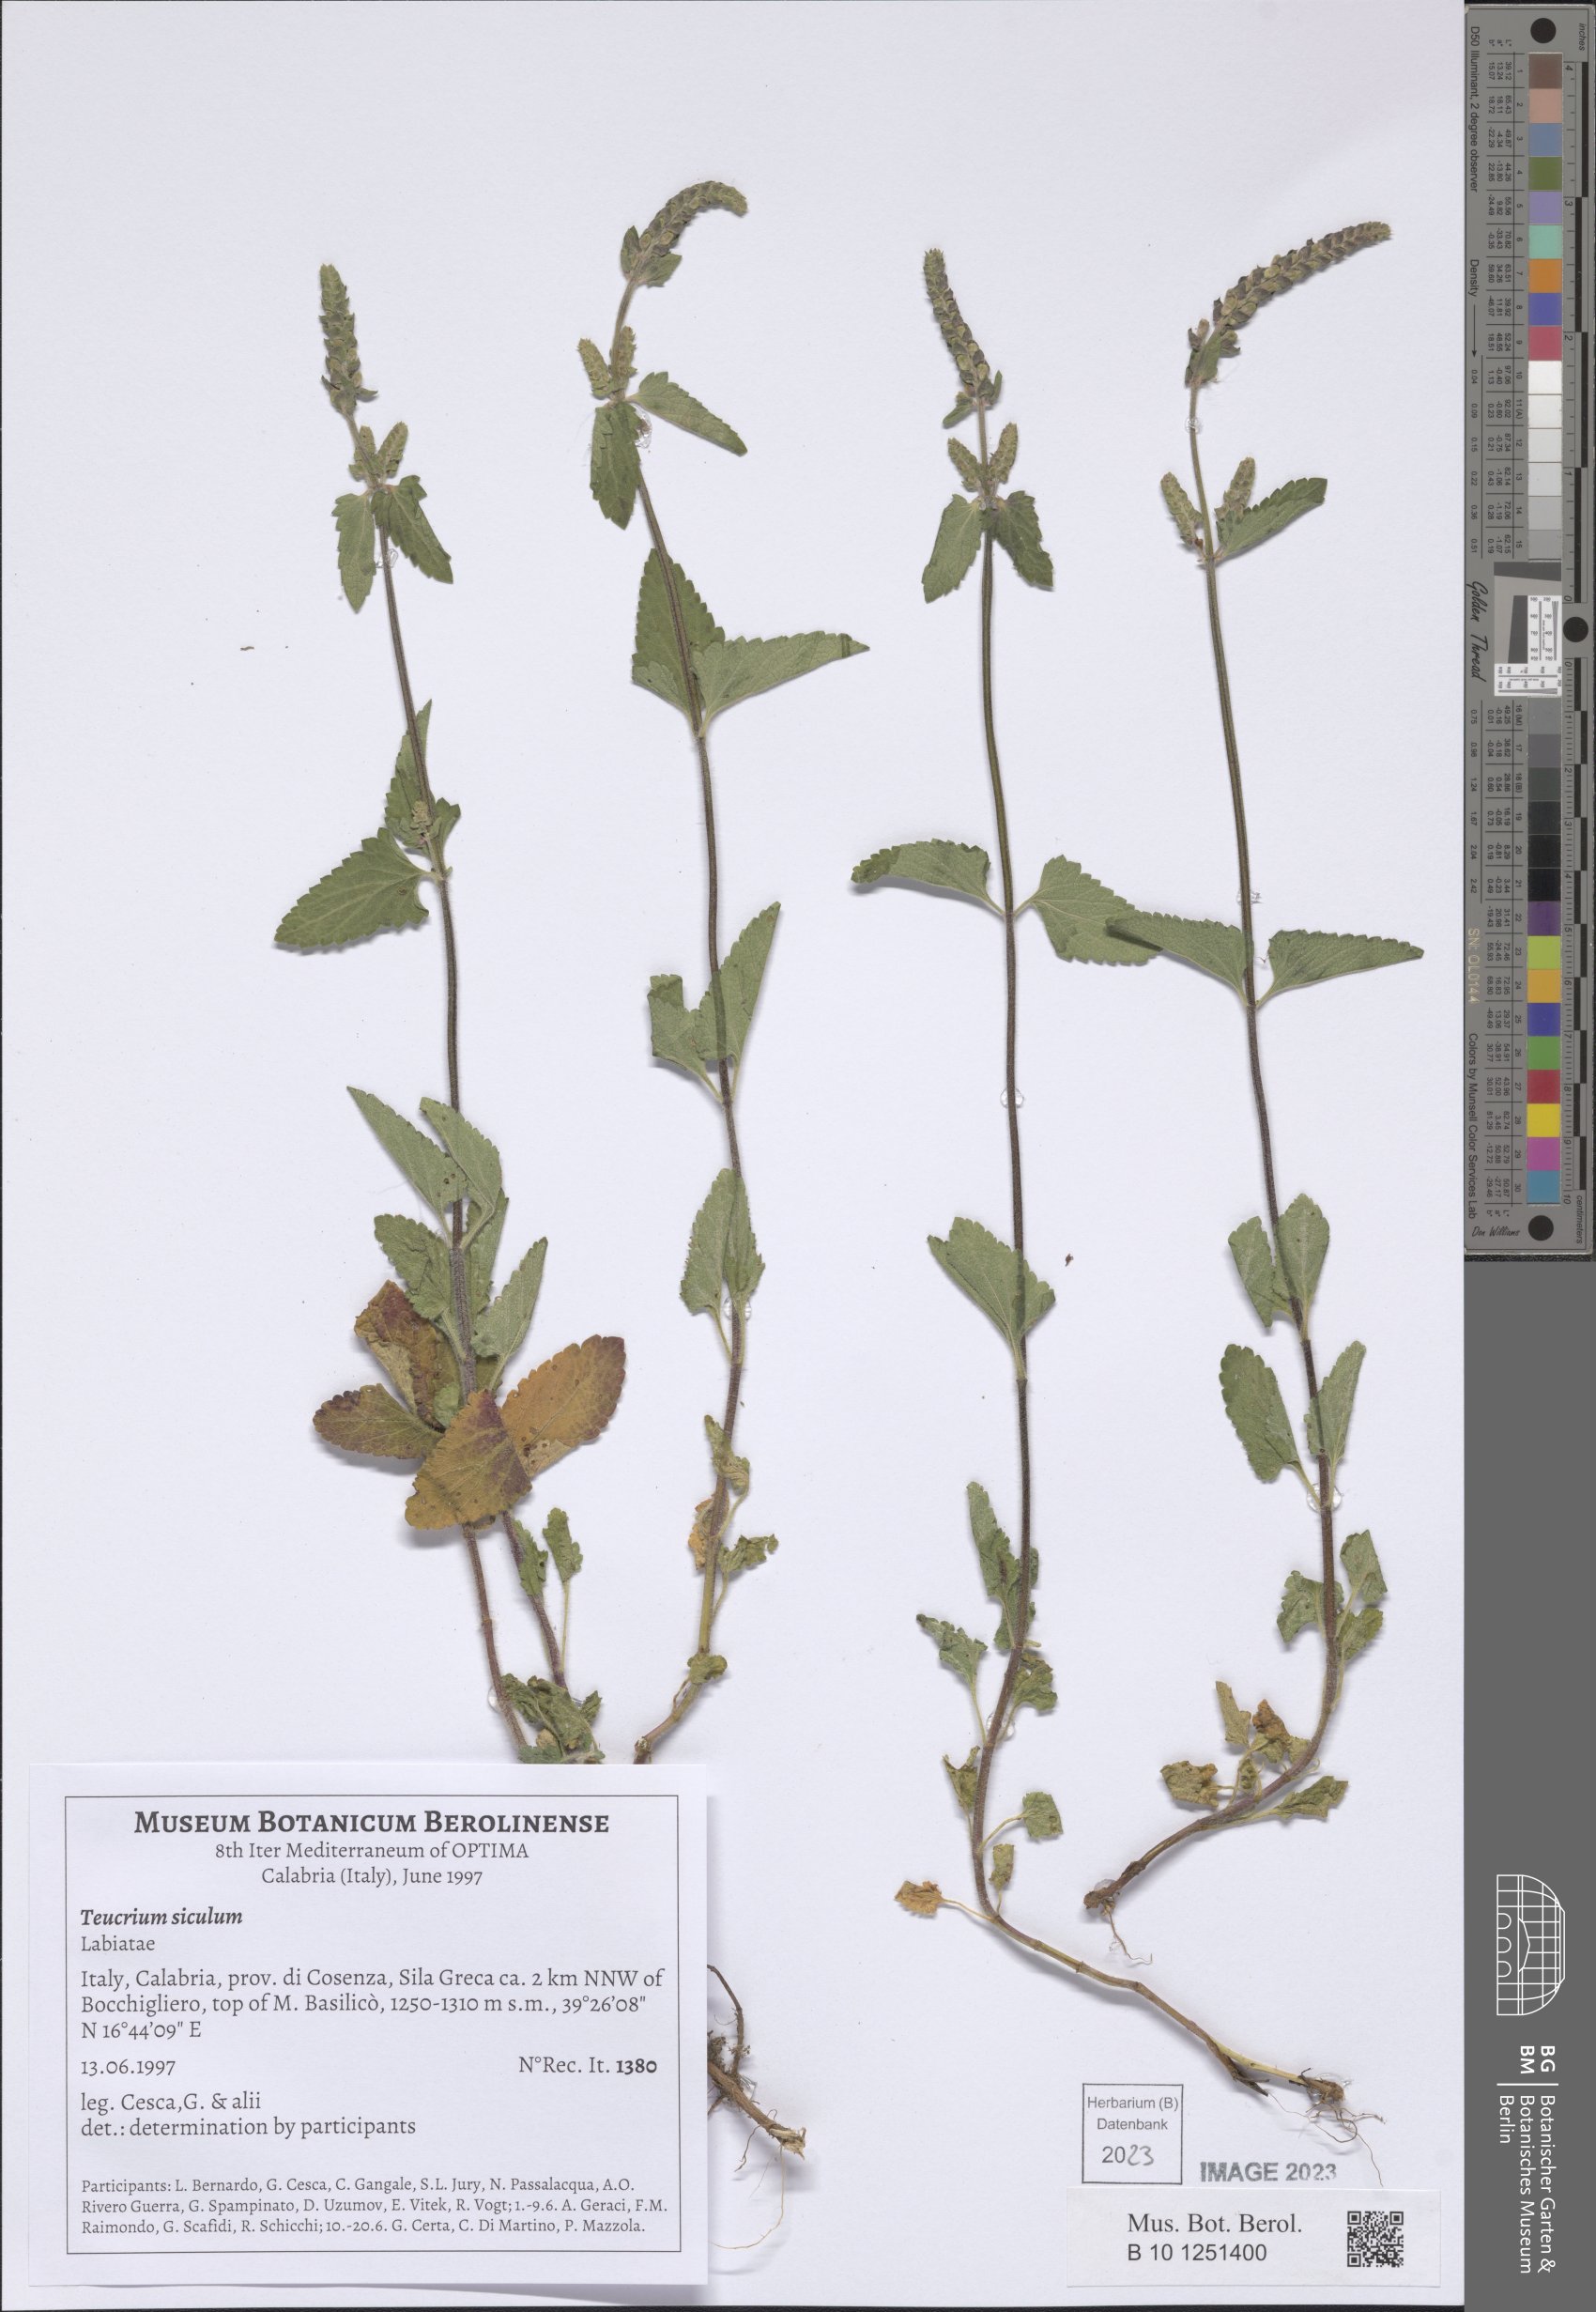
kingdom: Plantae
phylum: Tracheophyta
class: Magnoliopsida
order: Lamiales
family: Lamiaceae
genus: Teucrium
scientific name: Teucrium siculum
